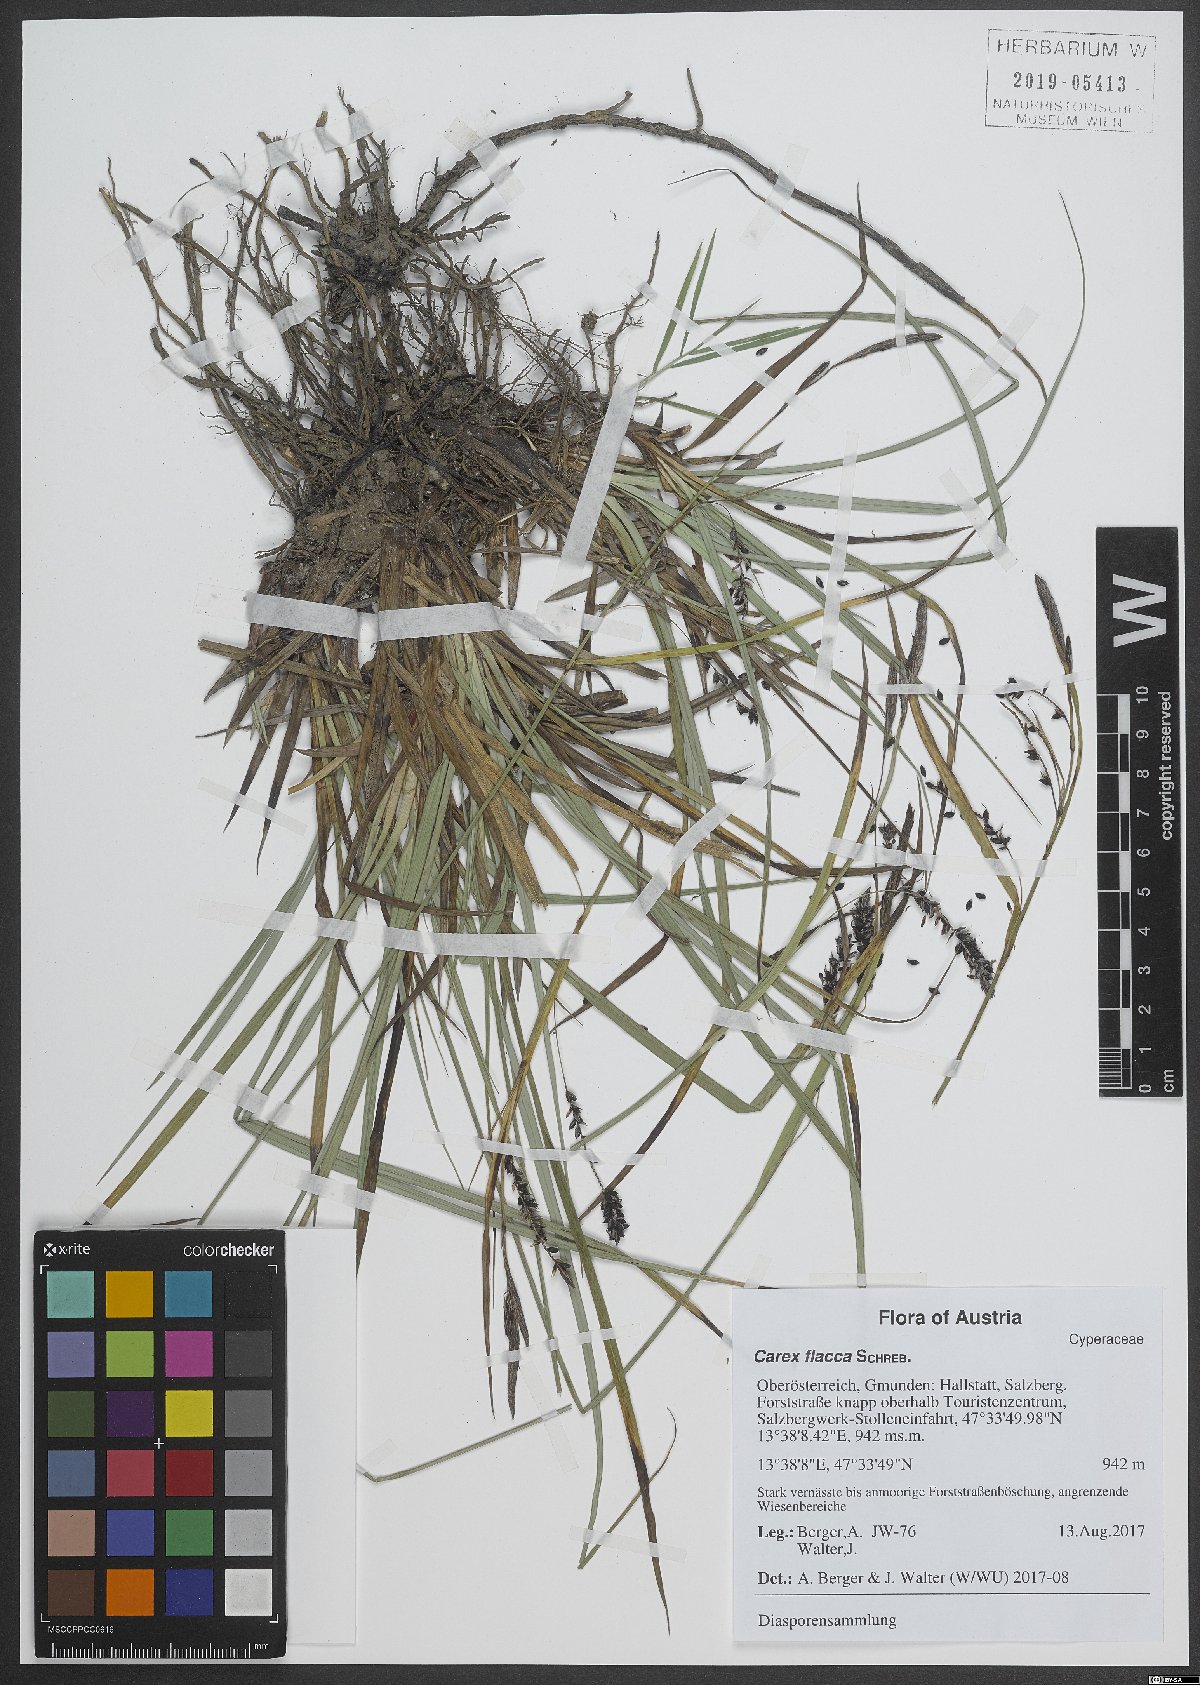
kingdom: Plantae
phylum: Tracheophyta
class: Liliopsida
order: Poales
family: Cyperaceae
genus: Carex
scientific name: Carex flacca
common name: Glaucous sedge
